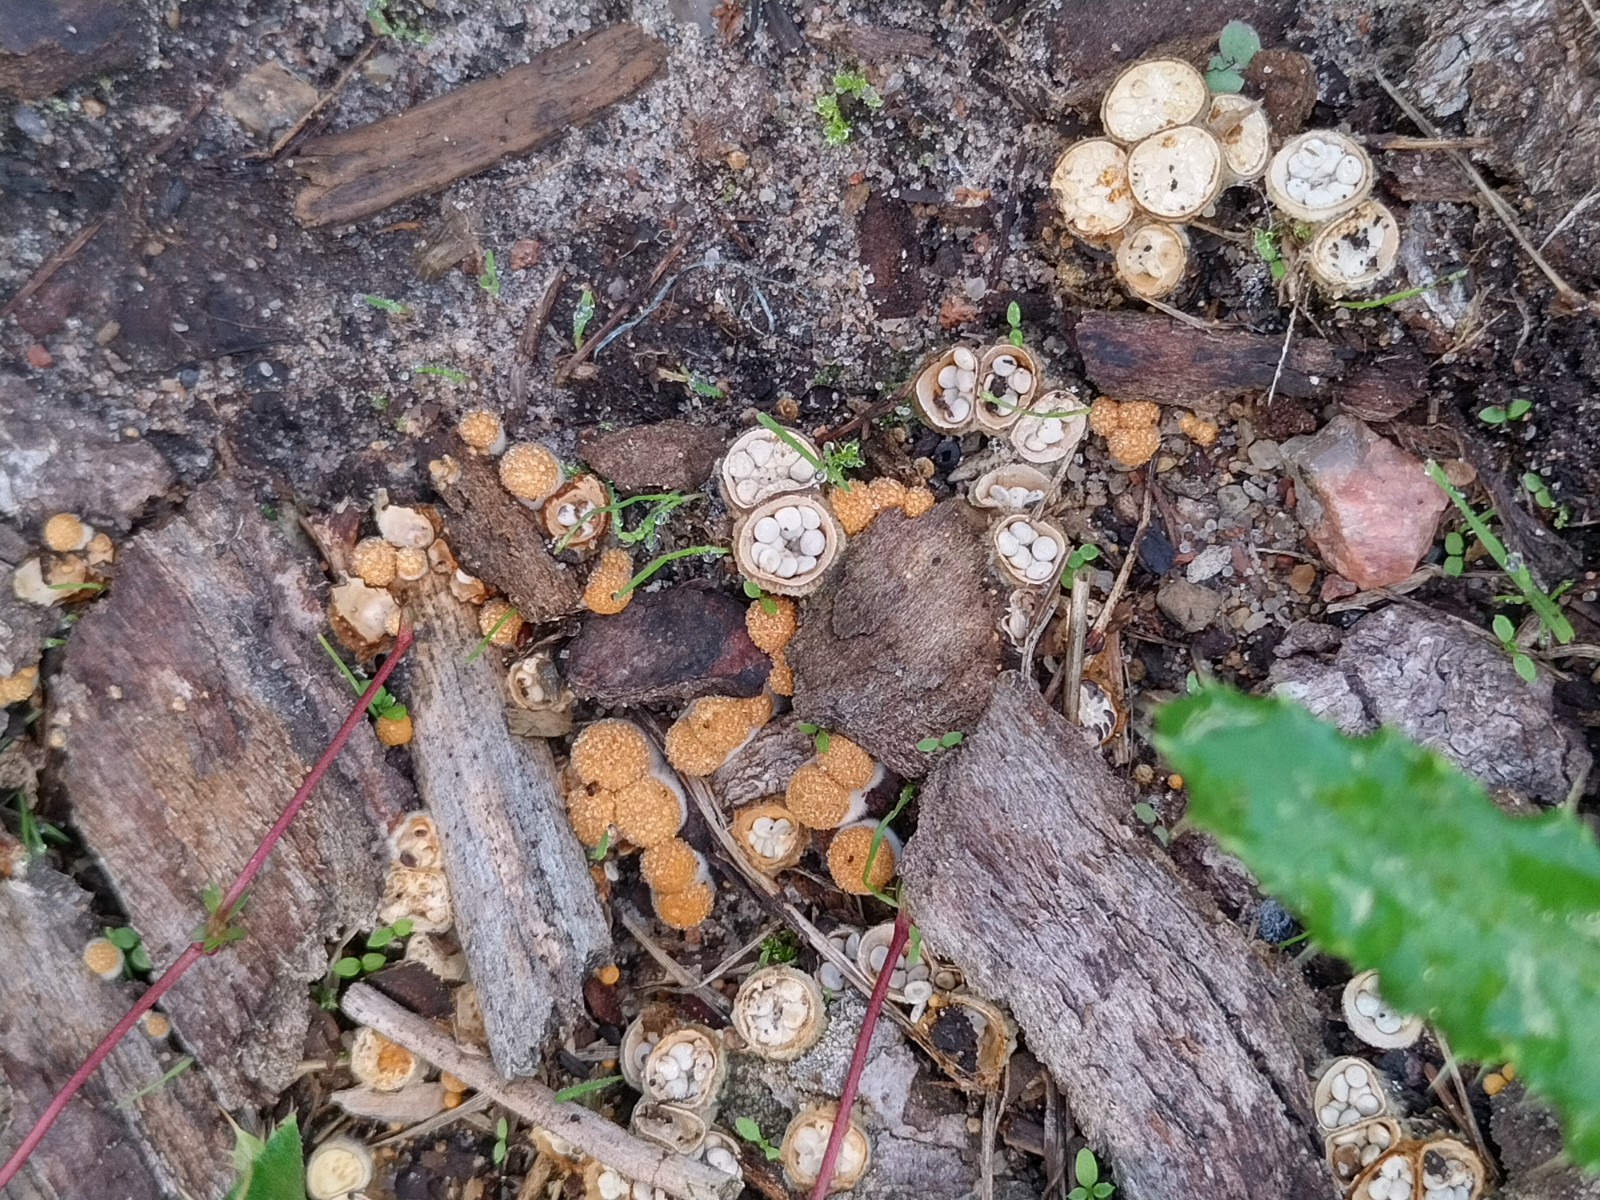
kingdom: Fungi
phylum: Basidiomycota
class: Agaricomycetes
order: Agaricales
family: Nidulariaceae
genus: Crucibulum
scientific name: Crucibulum crucibuliforme
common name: krukkesvamp
